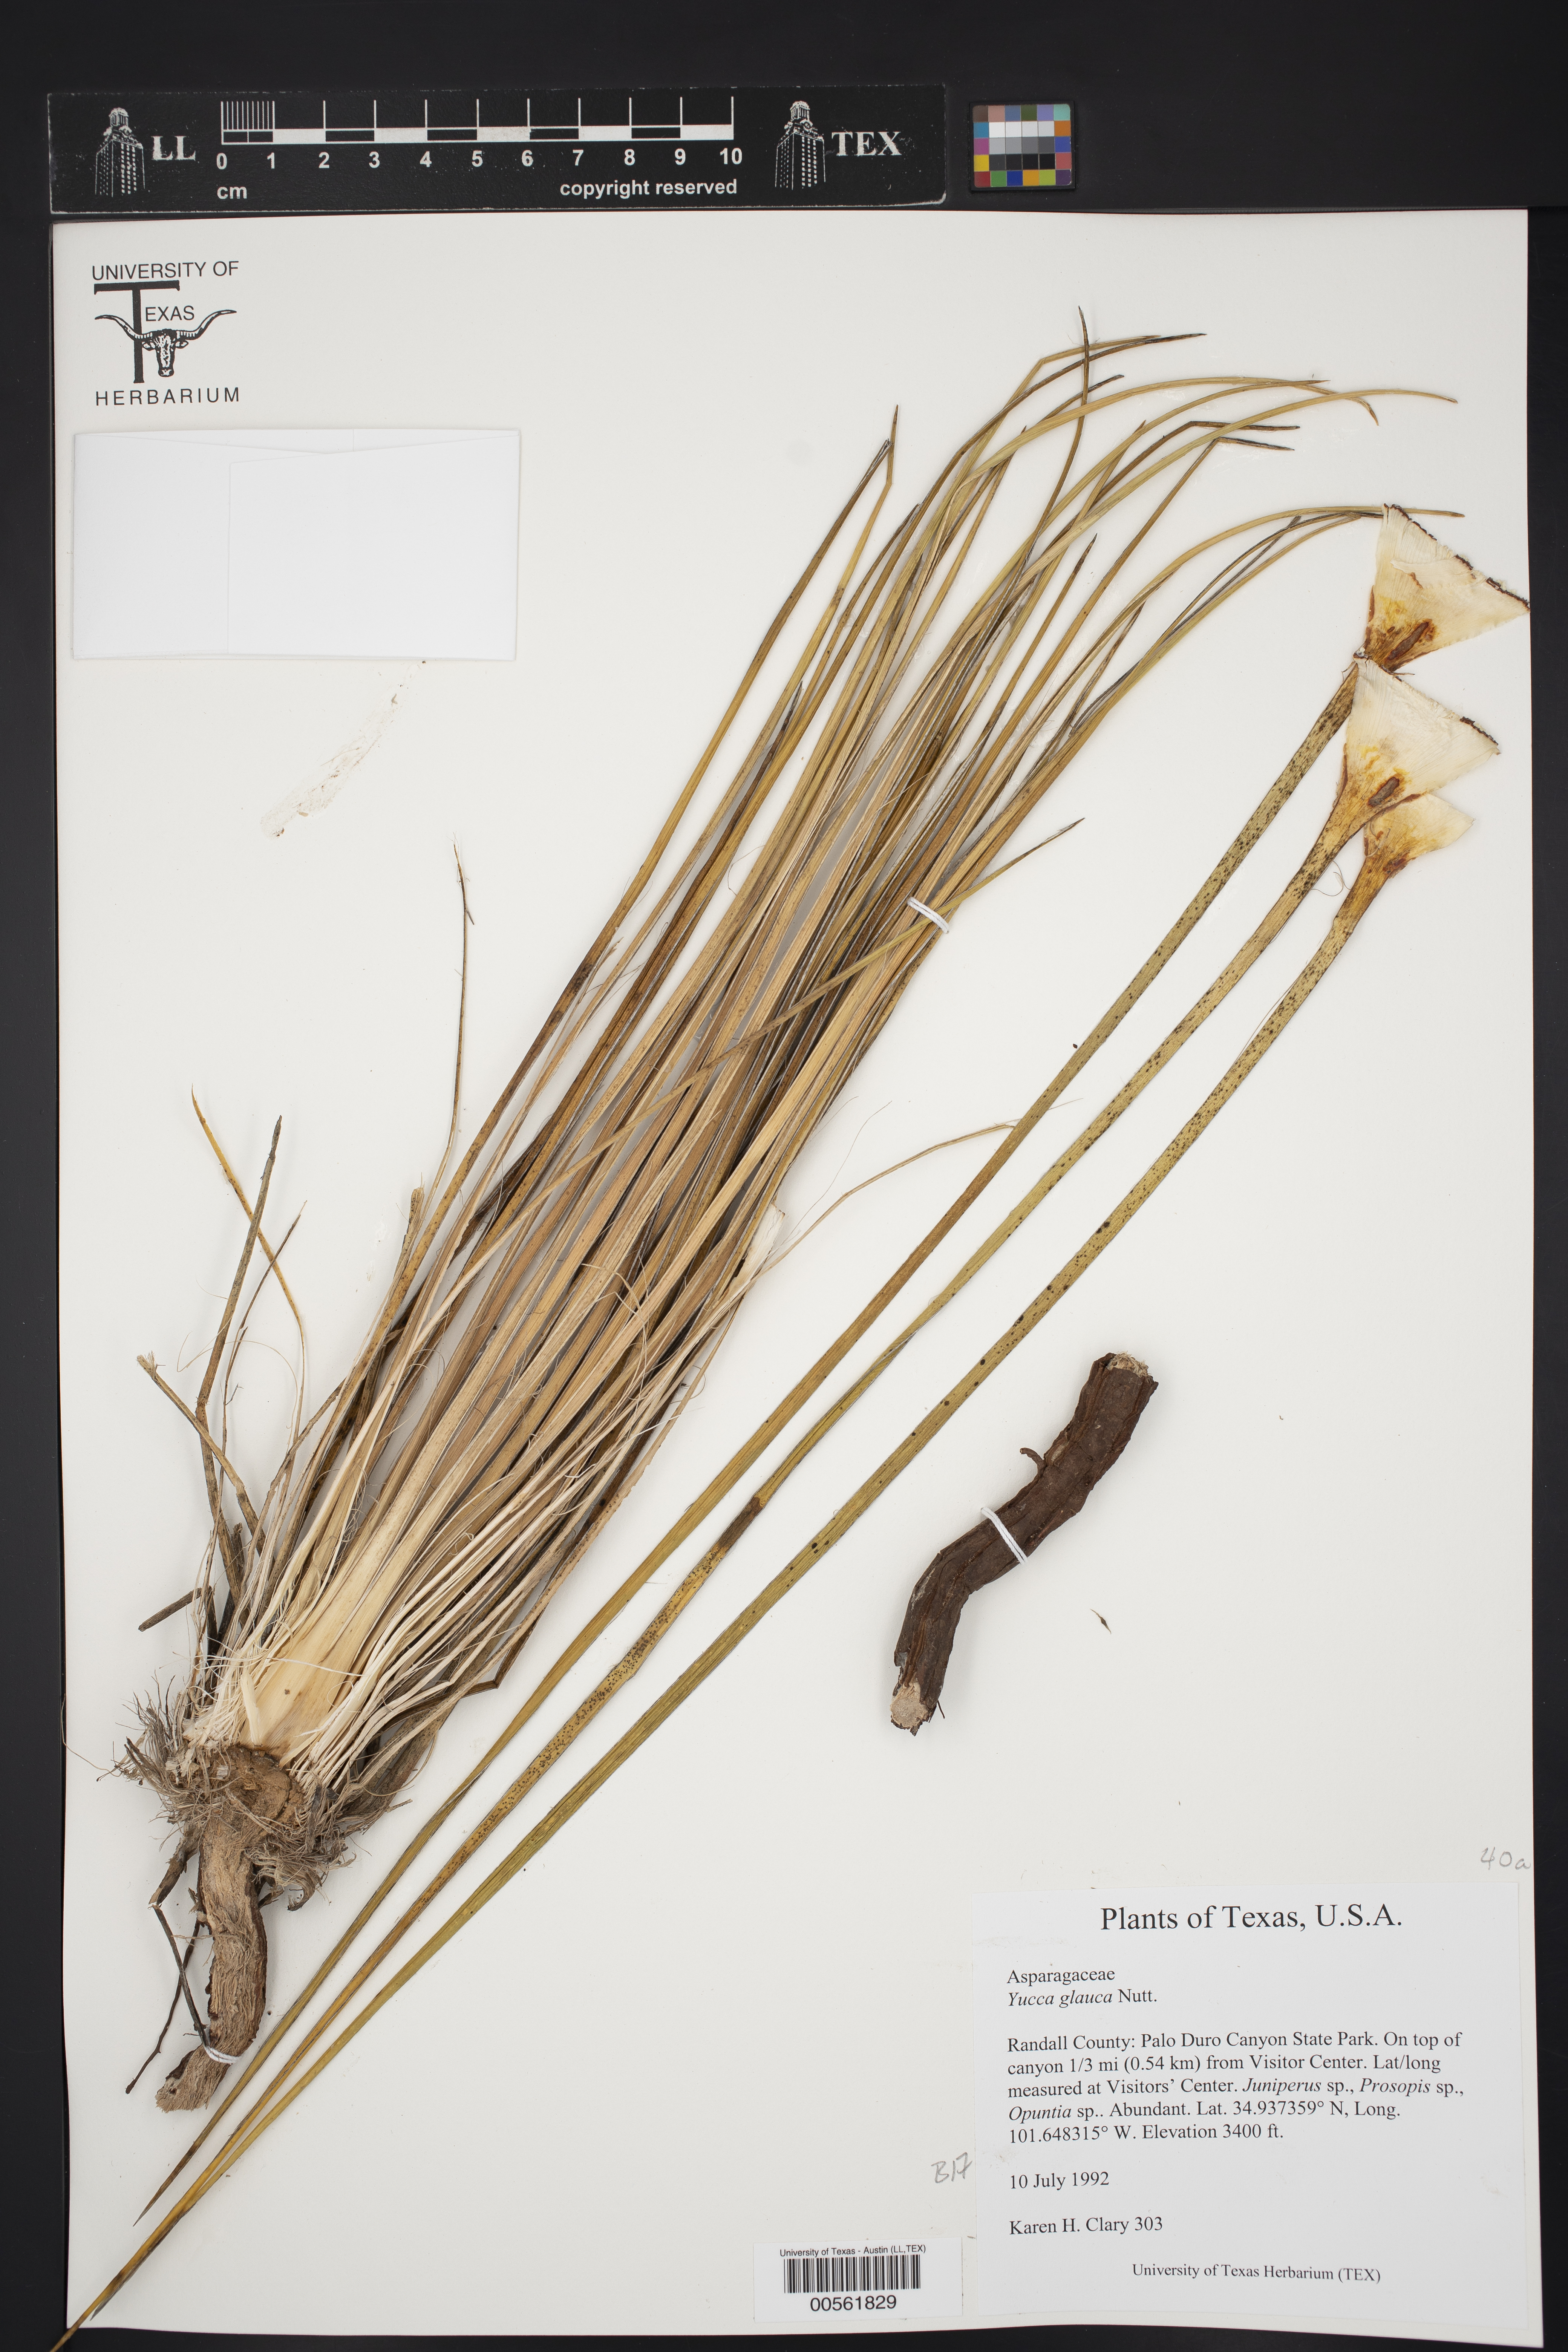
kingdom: Plantae
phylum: Tracheophyta
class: Liliopsida
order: Asparagales
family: Asparagaceae
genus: Yucca
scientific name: Yucca glauca
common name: Great plains yucca
